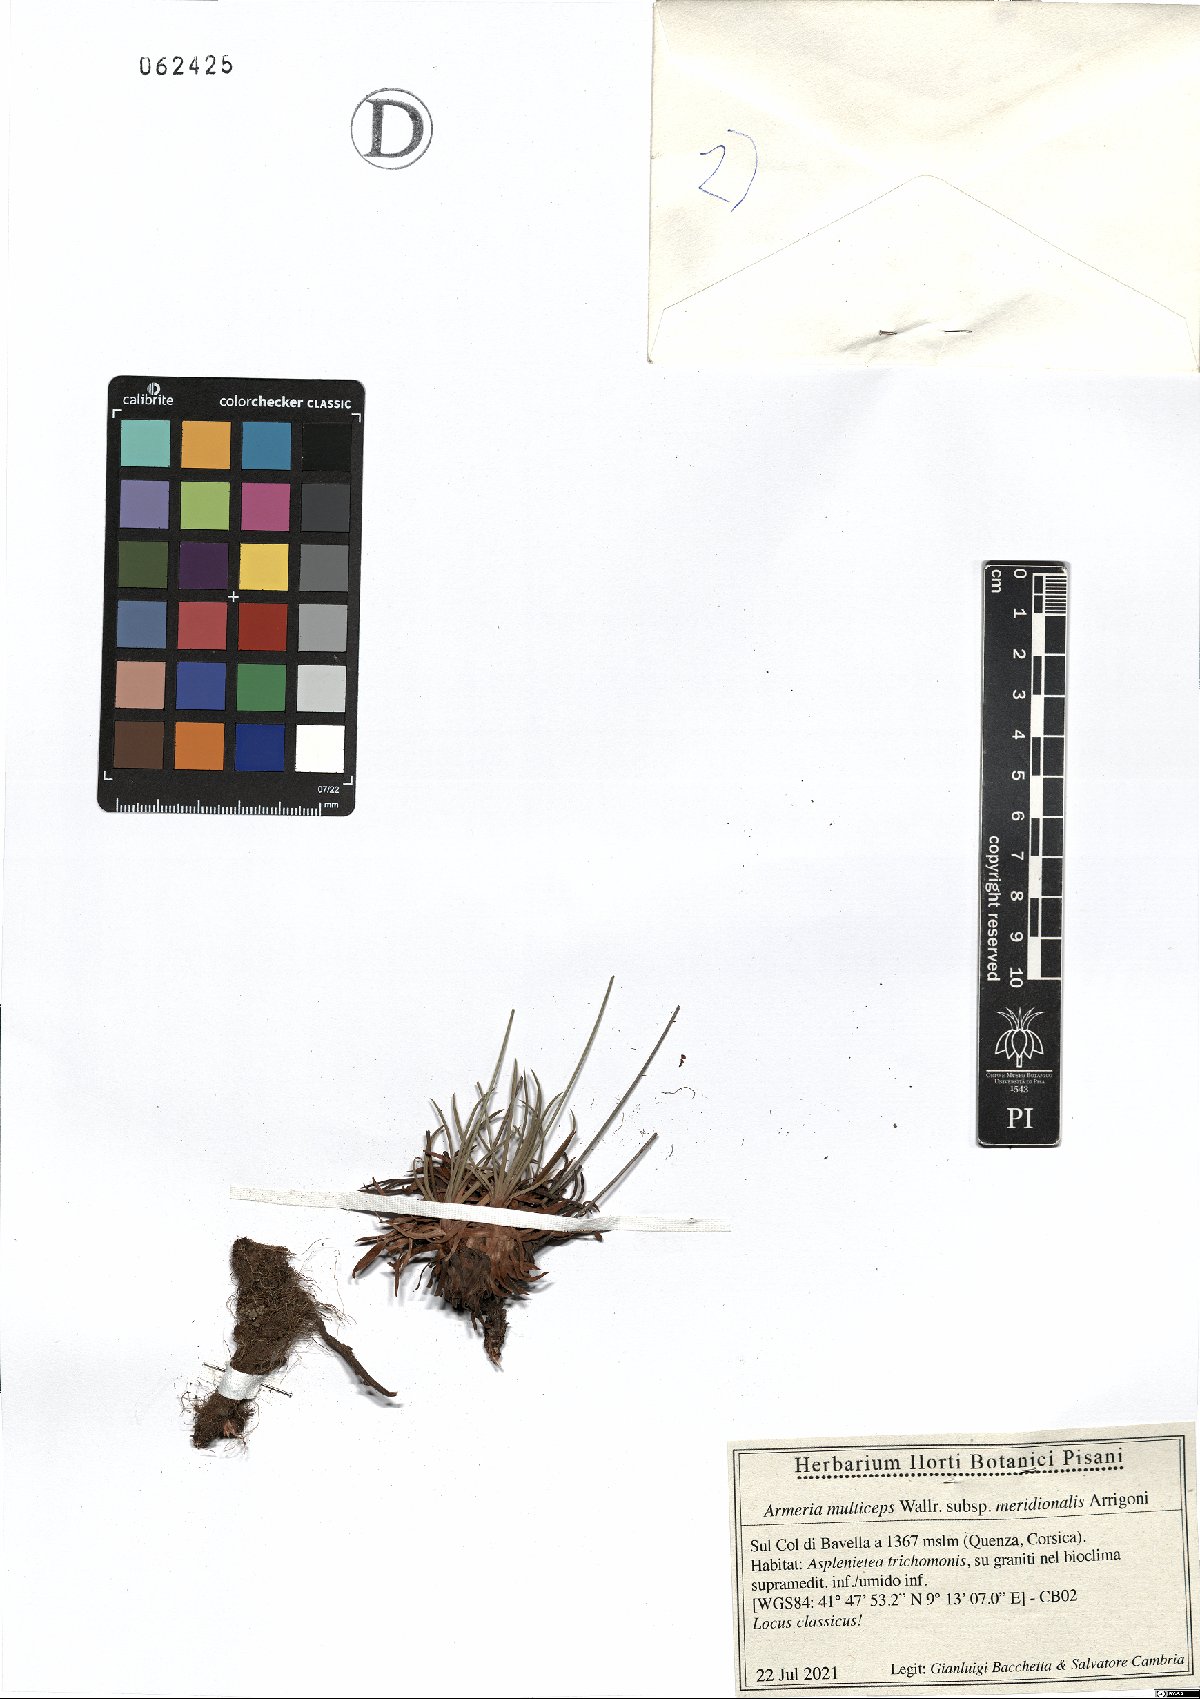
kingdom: Plantae
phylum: Tracheophyta
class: Magnoliopsida
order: Caryophyllales
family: Plumbaginaceae
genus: Armeria
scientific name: Armeria multiceps
